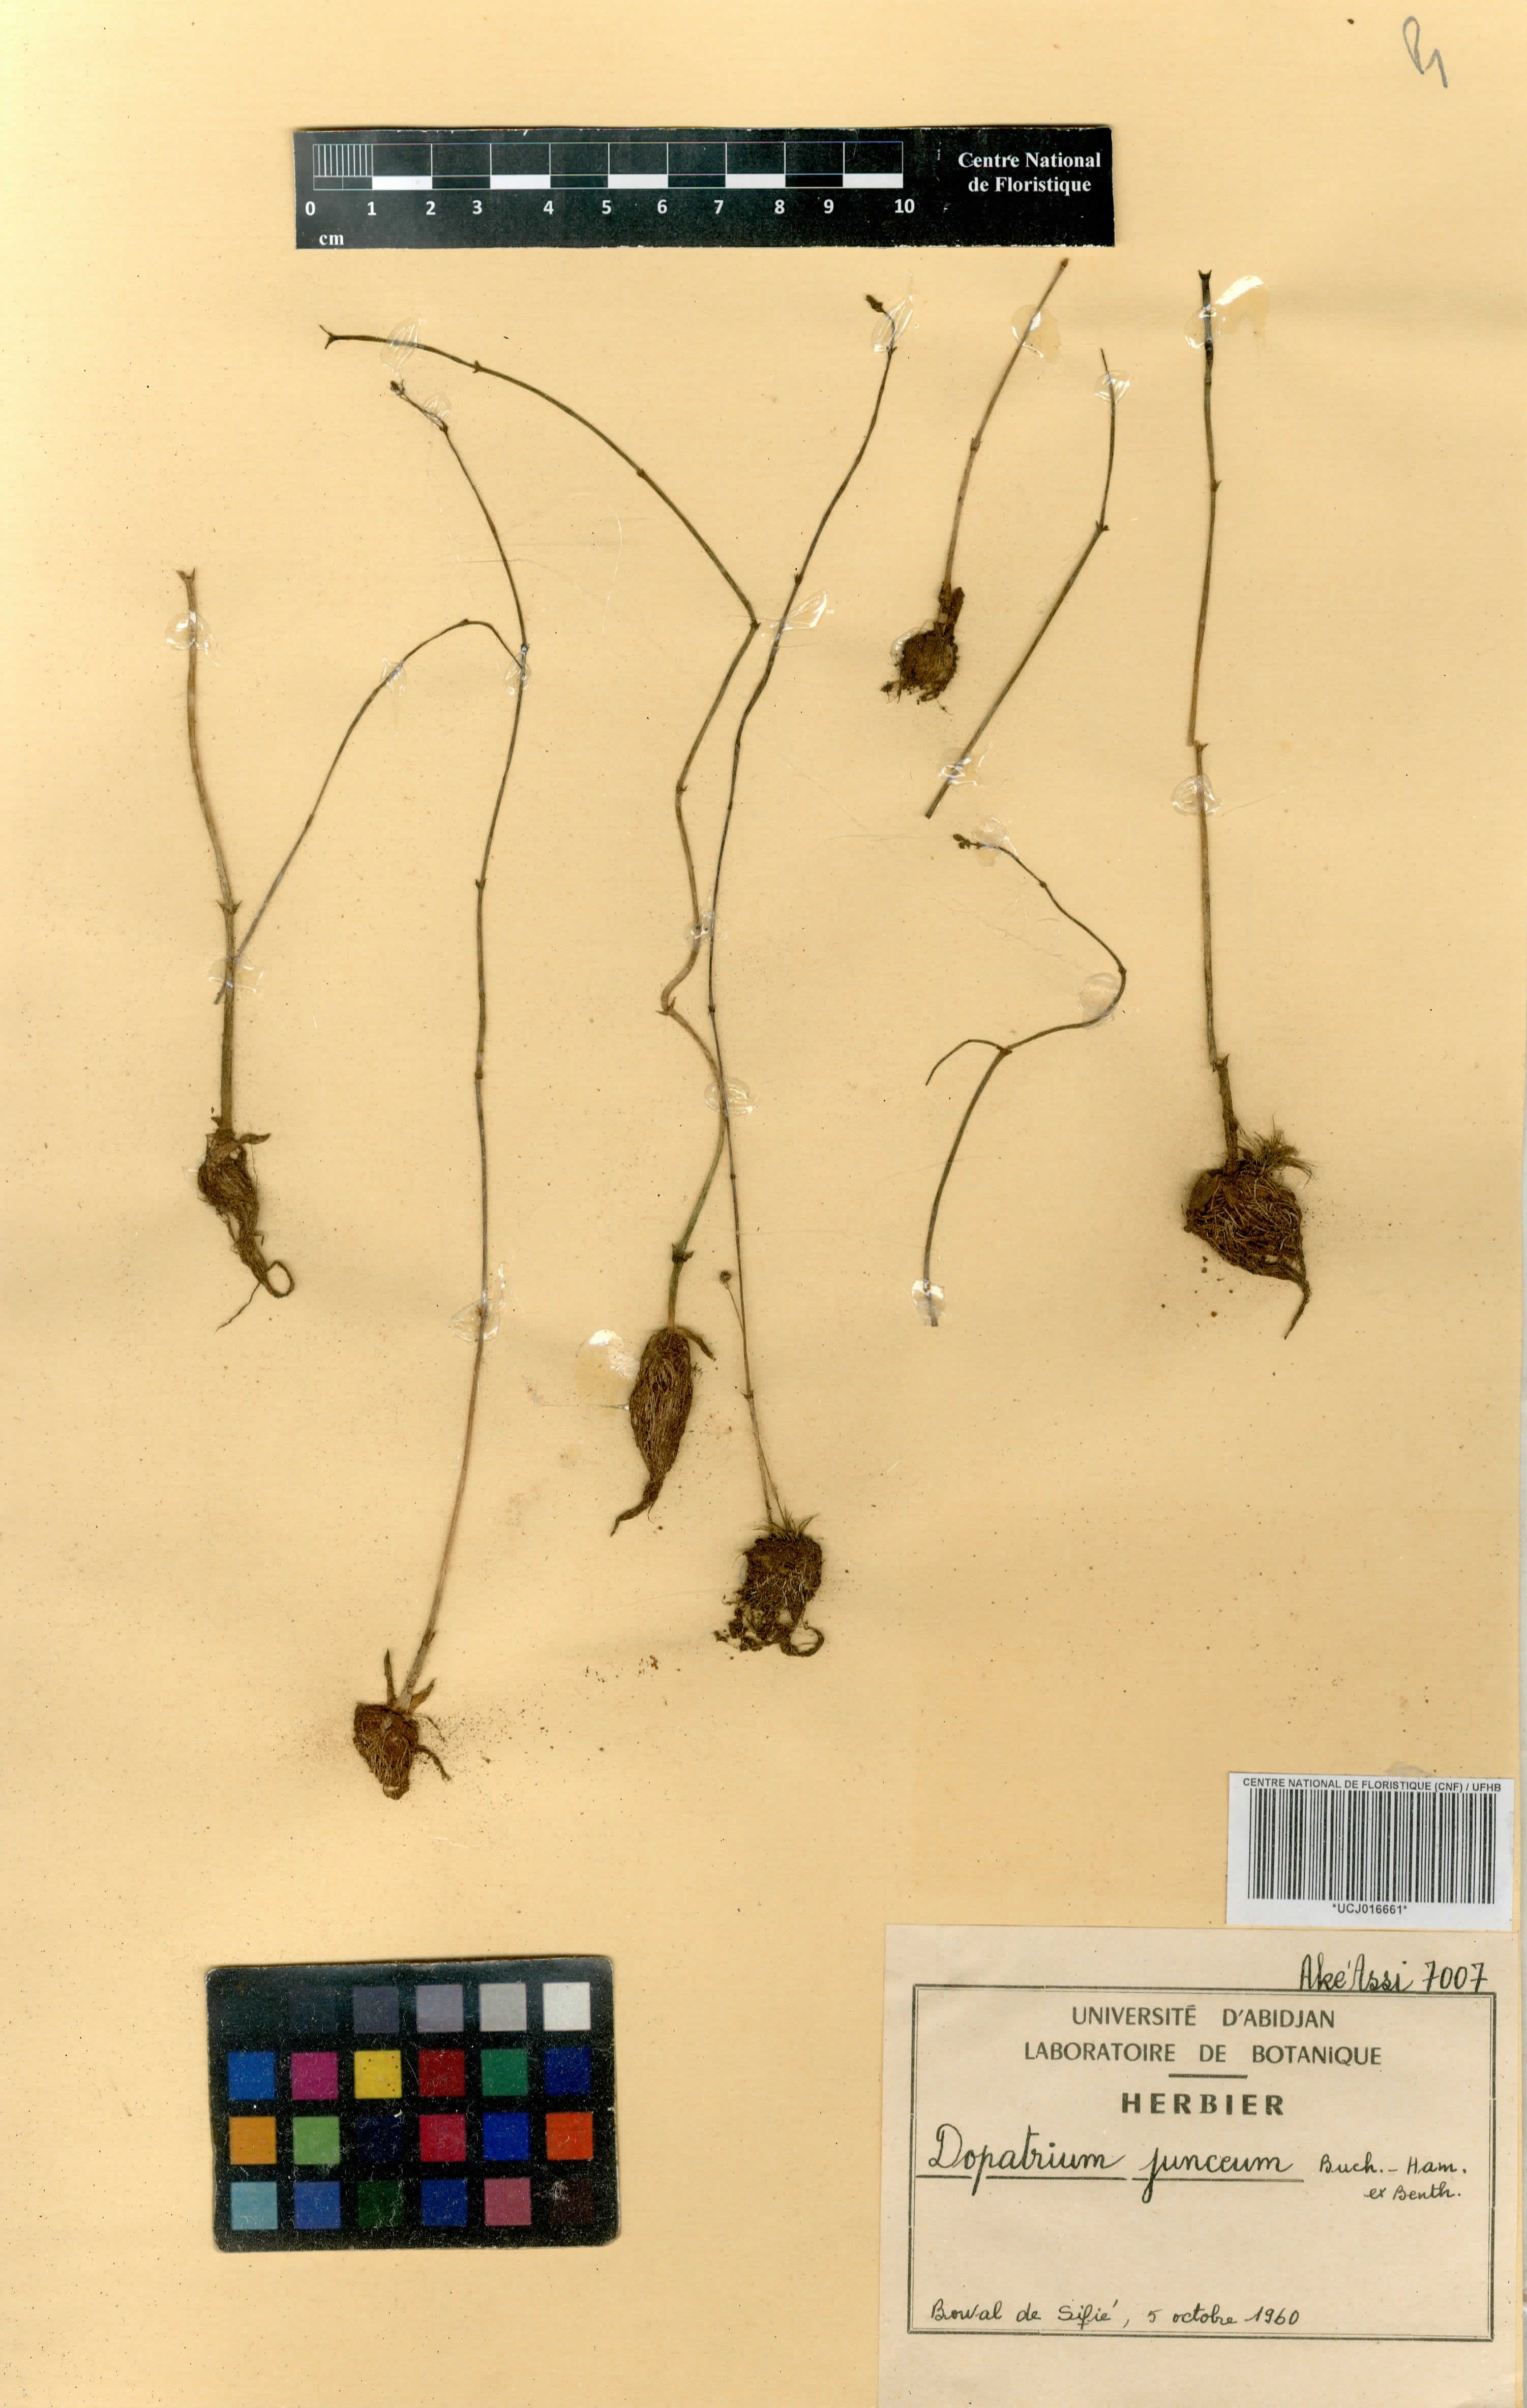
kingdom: Plantae
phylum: Tracheophyta
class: Magnoliopsida
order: Lamiales
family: Plantaginaceae
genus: Dopatrium
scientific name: Dopatrium junceum
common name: Horsefly's eye
